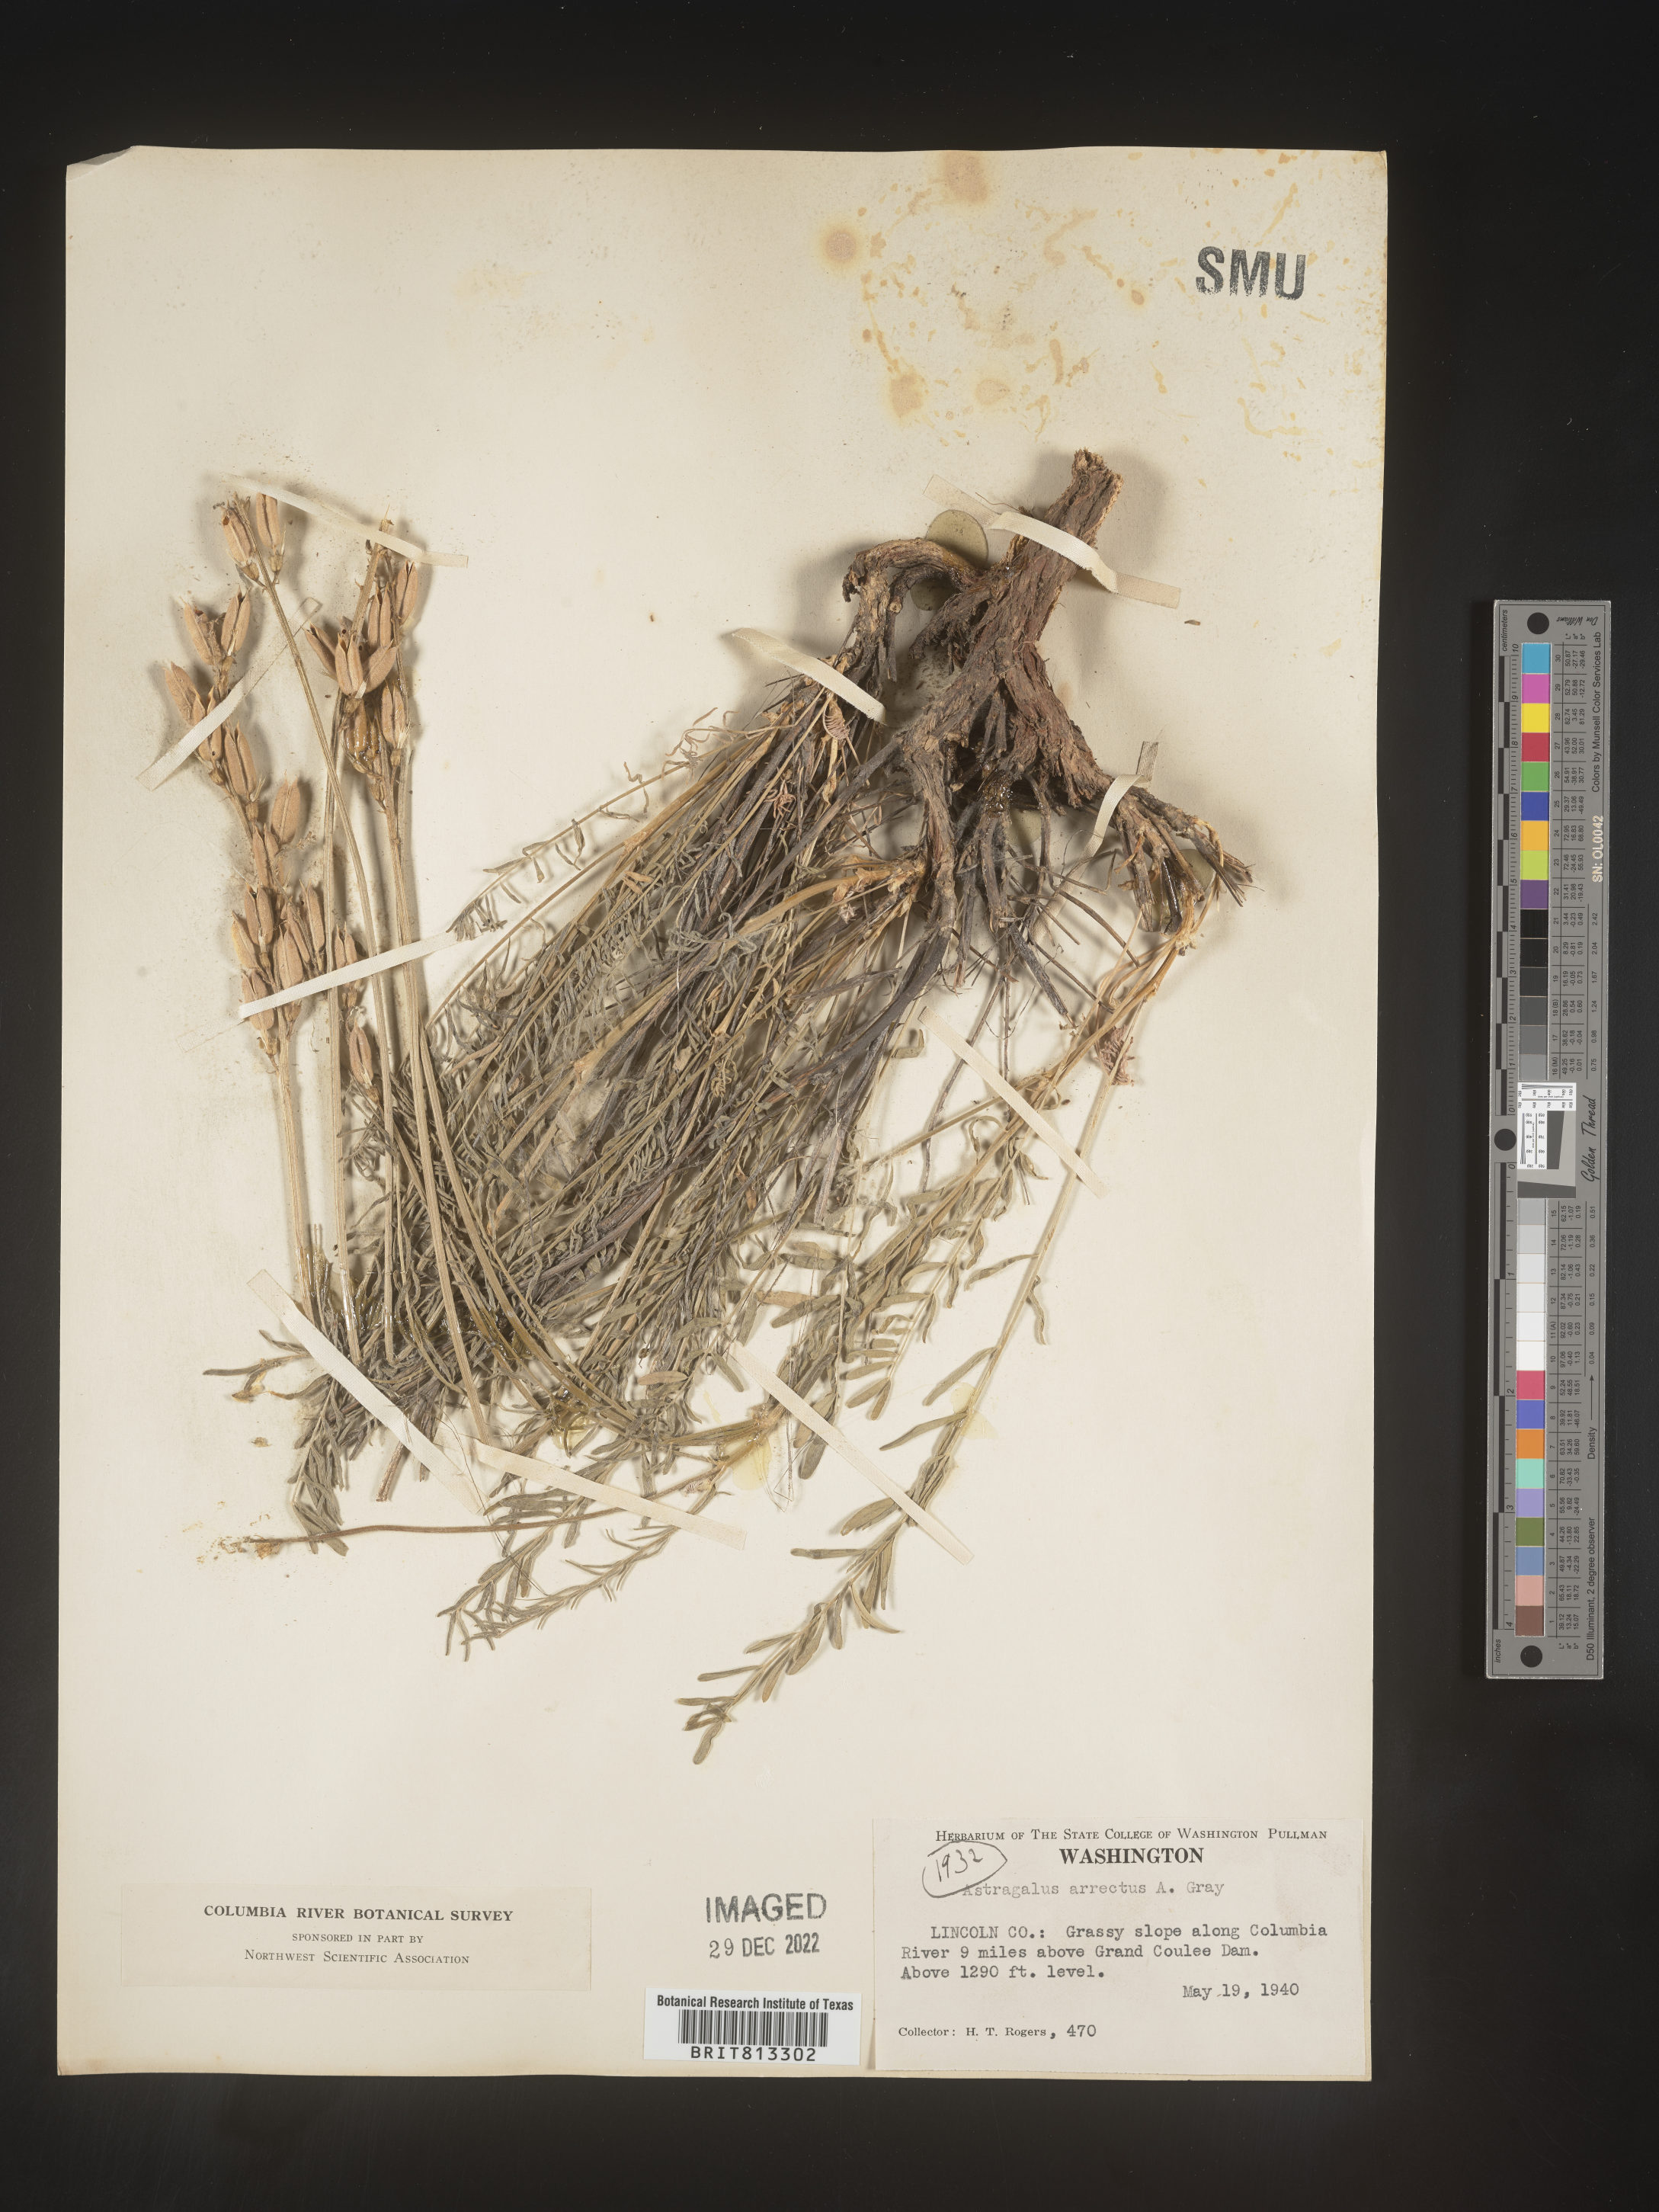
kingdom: Plantae
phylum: Tracheophyta
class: Magnoliopsida
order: Fabales
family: Fabaceae
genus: Astragalus
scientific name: Astragalus
